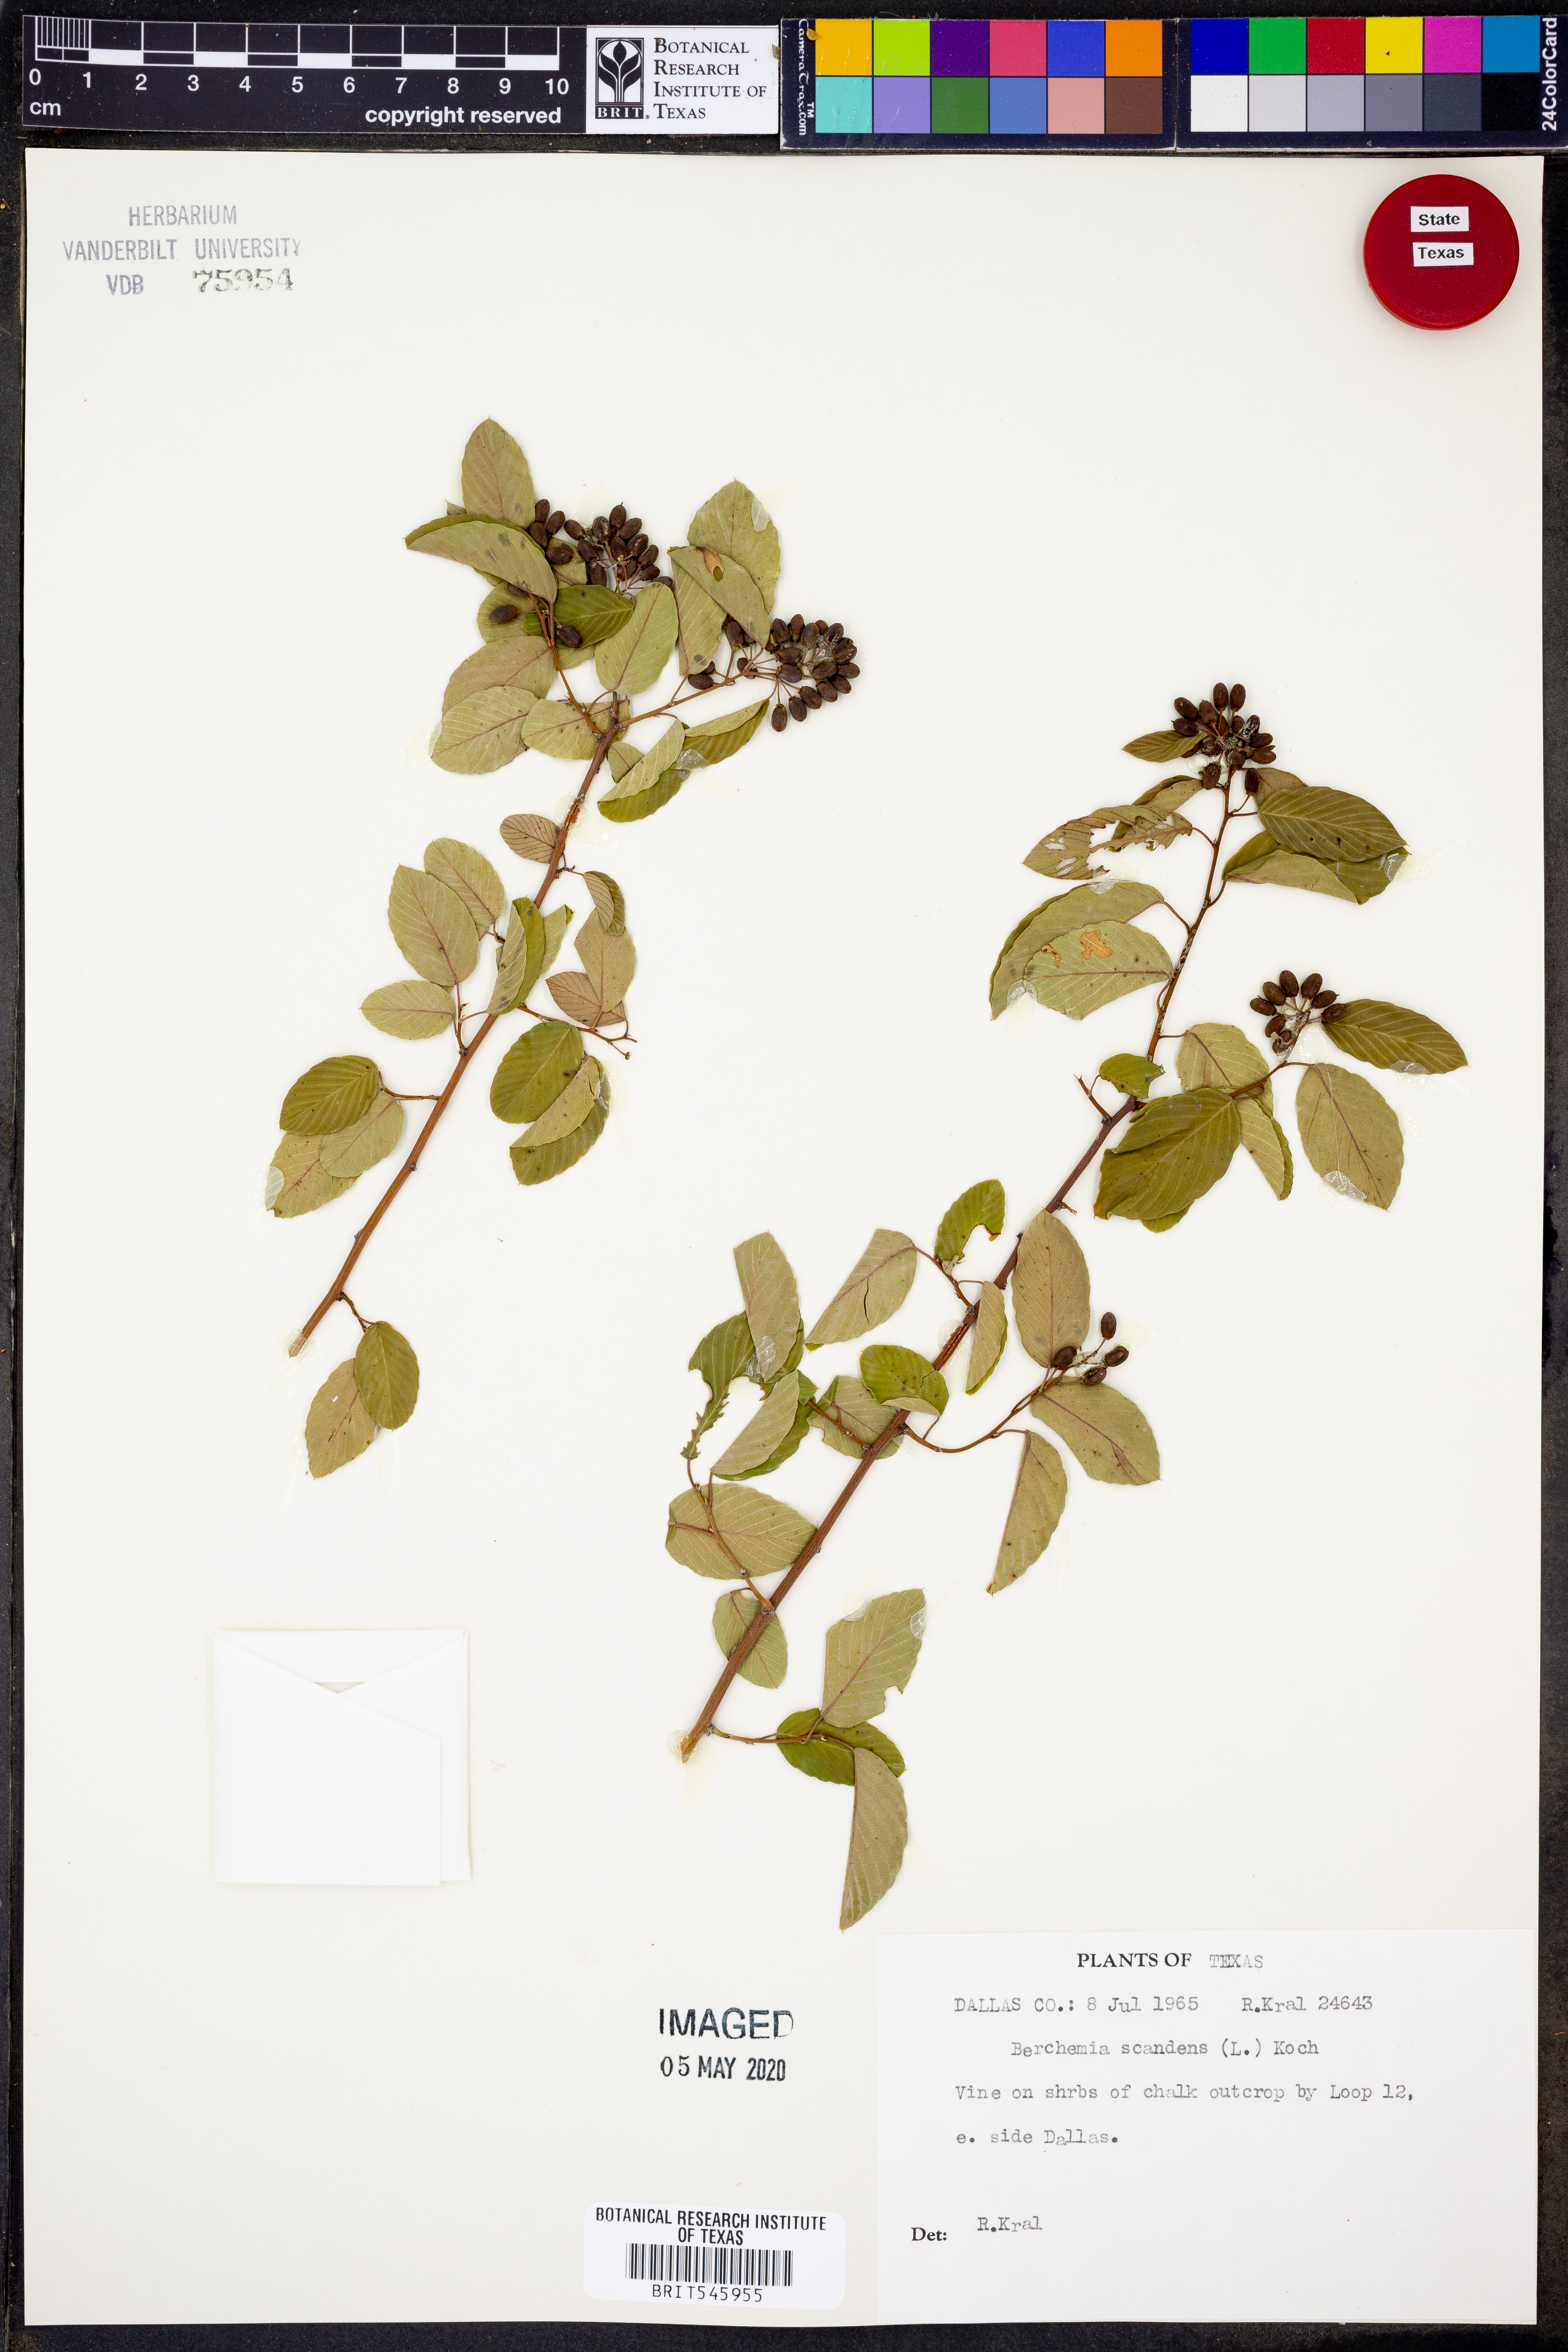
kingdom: Plantae
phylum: Tracheophyta
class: Magnoliopsida
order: Rosales
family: Rhamnaceae
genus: Berchemia
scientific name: Berchemia scandens
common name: Supplejack
